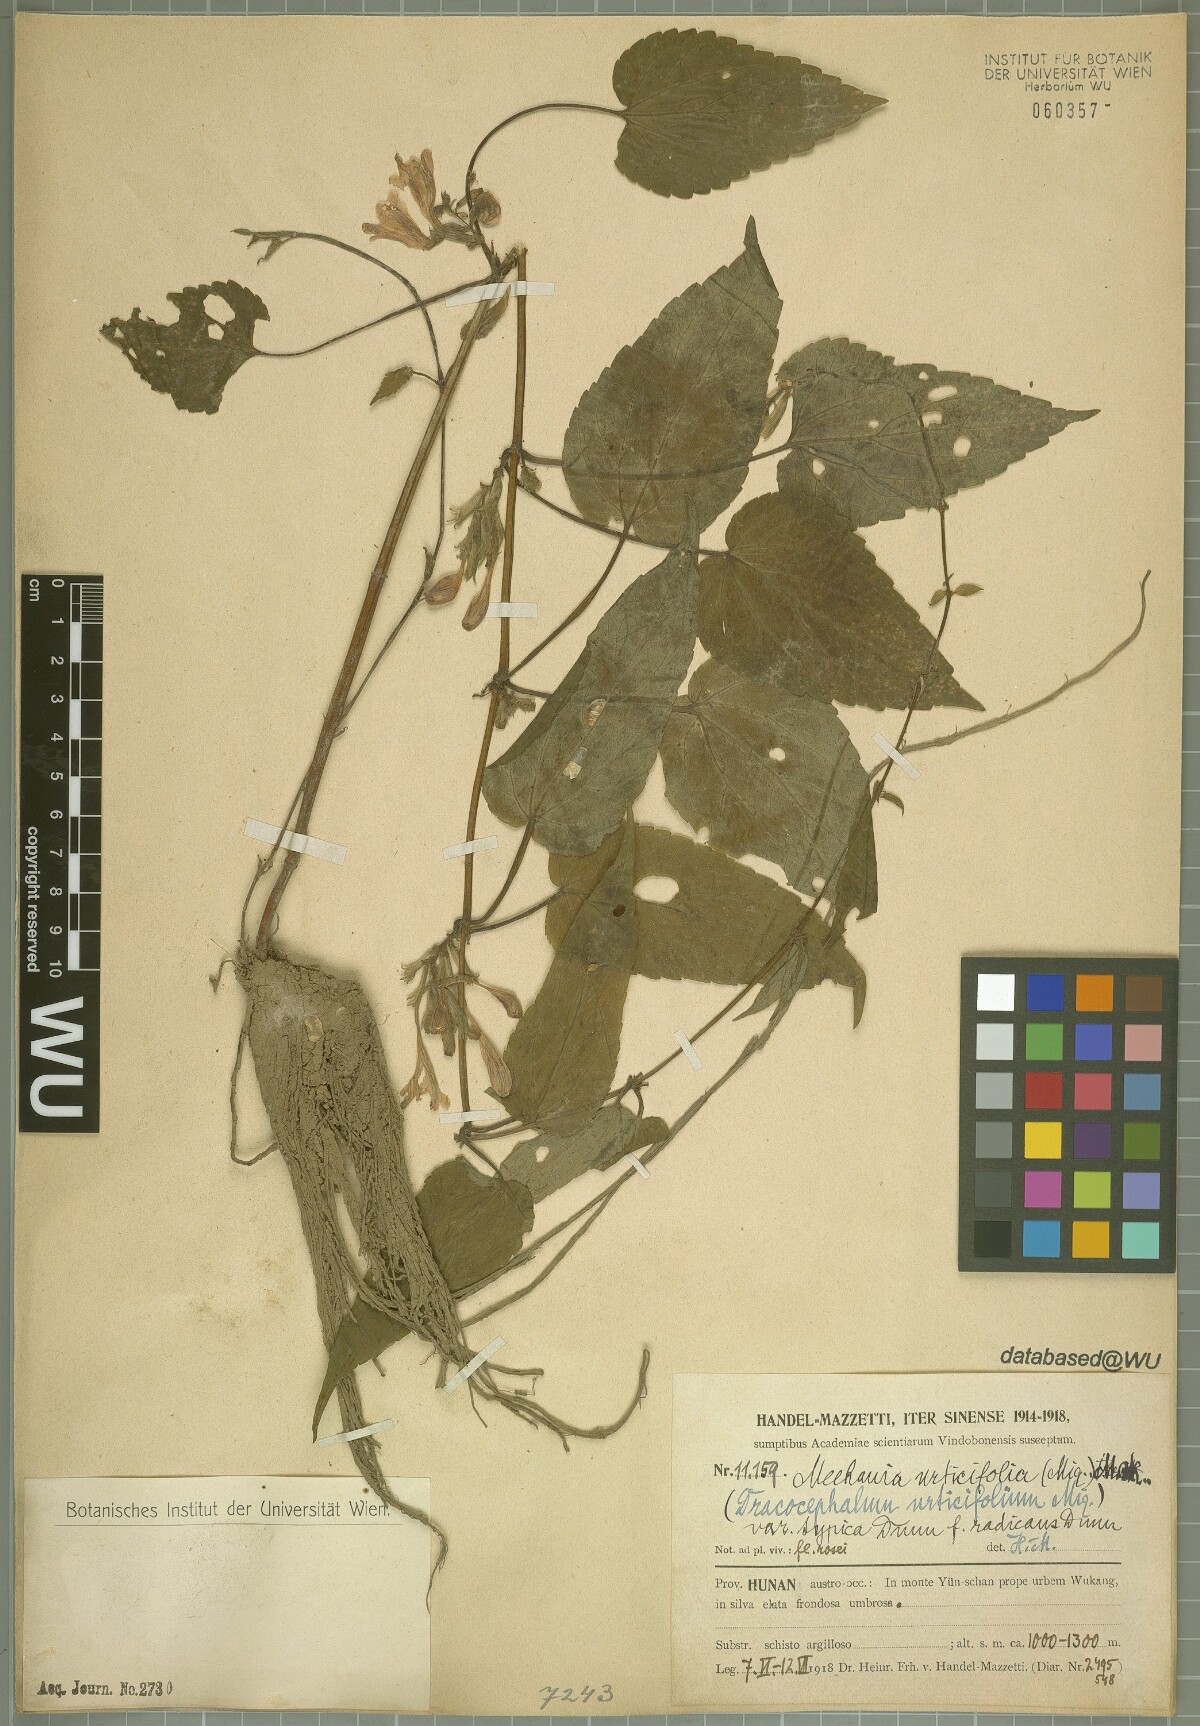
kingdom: Plantae
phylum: Tracheophyta
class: Magnoliopsida
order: Lamiales
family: Lamiaceae
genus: Meehania
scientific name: Meehania urticifolia
